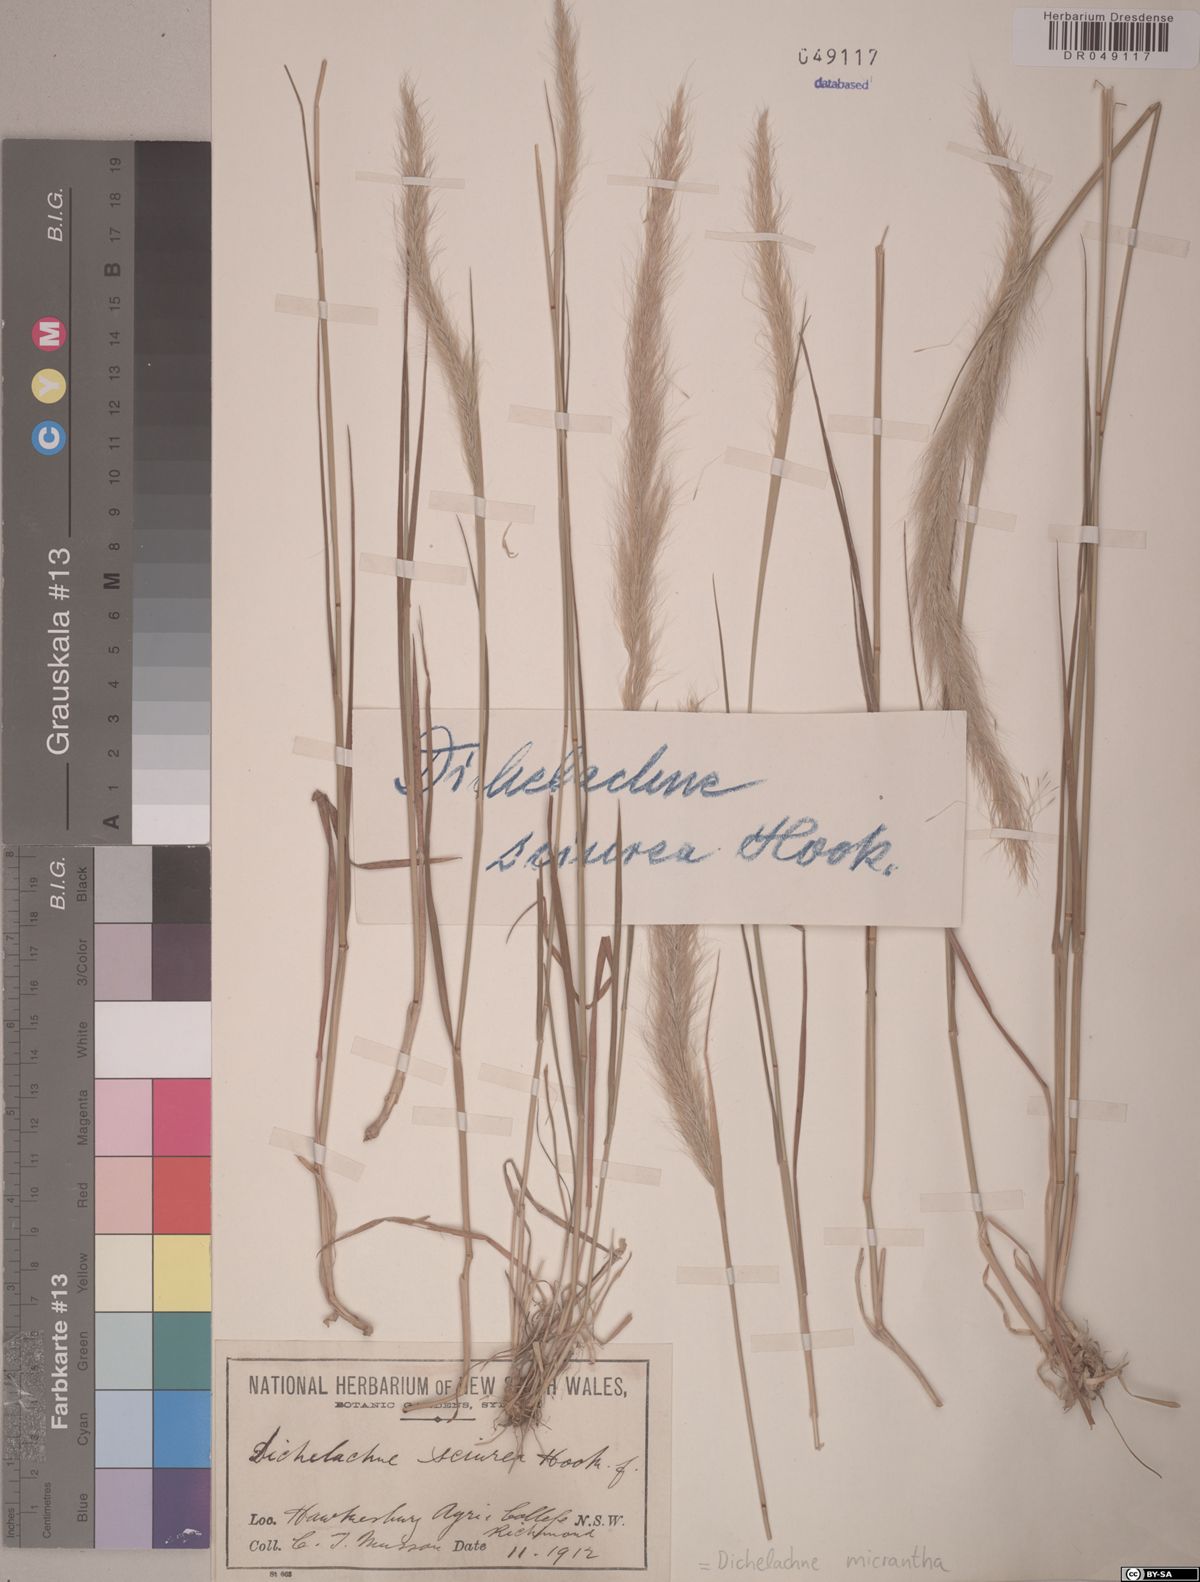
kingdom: Plantae
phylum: Tracheophyta
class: Liliopsida
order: Poales
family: Poaceae
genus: Dichelachne
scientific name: Dichelachne micrantha
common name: Plumegrass
